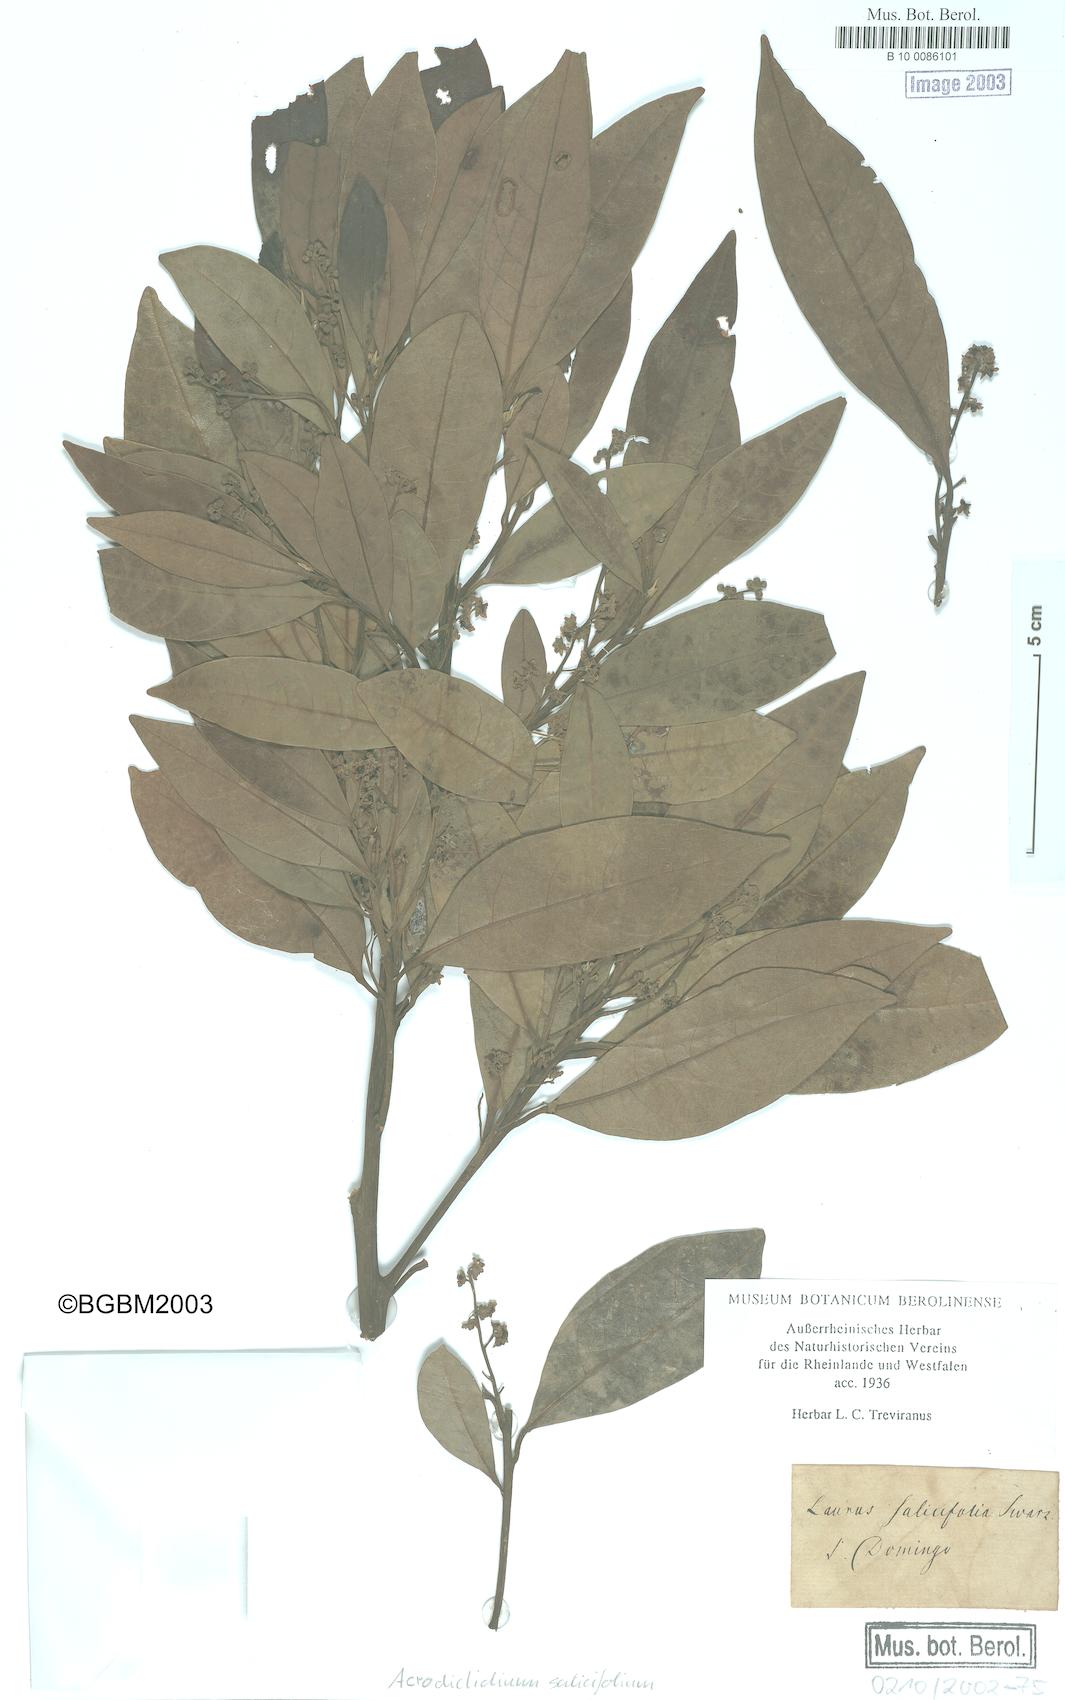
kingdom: Plantae
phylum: Tracheophyta
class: Magnoliopsida
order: Laurales
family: Lauraceae
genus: Licaria
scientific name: Licaria parvifolia
